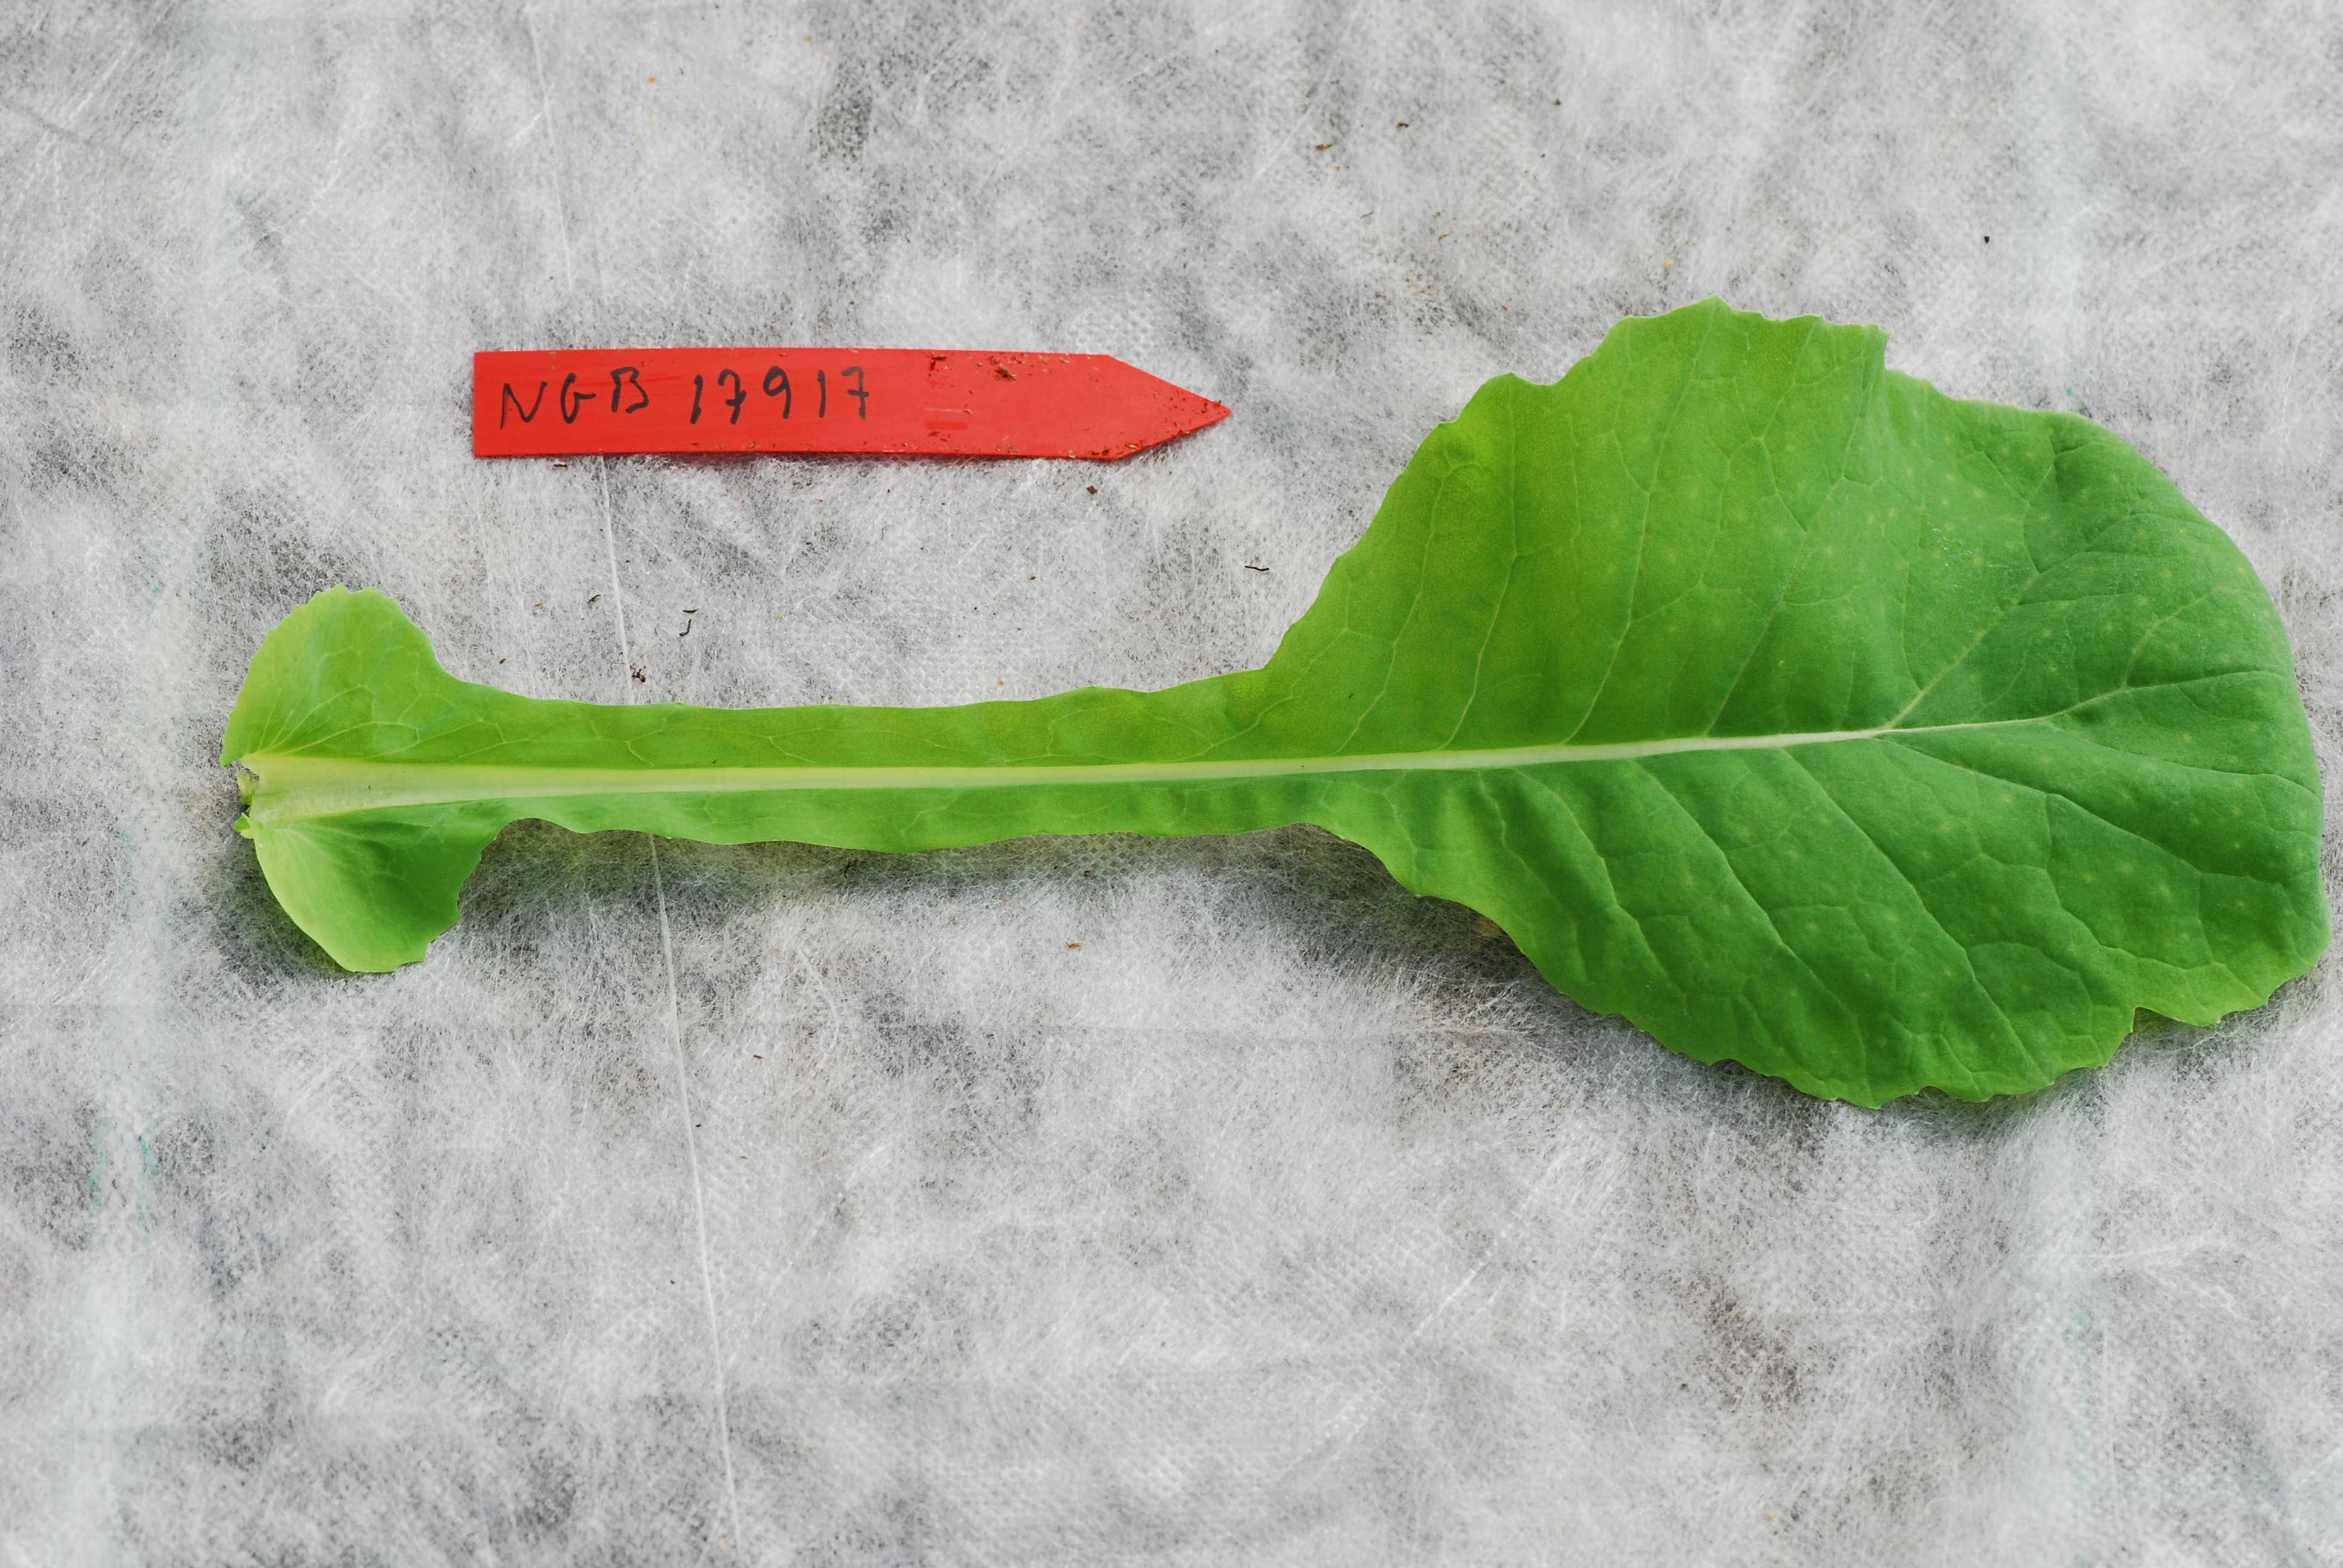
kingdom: Plantae
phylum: Tracheophyta
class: Magnoliopsida
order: Brassicales
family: Brassicaceae
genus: Brassica
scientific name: Brassica napus
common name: Rape
